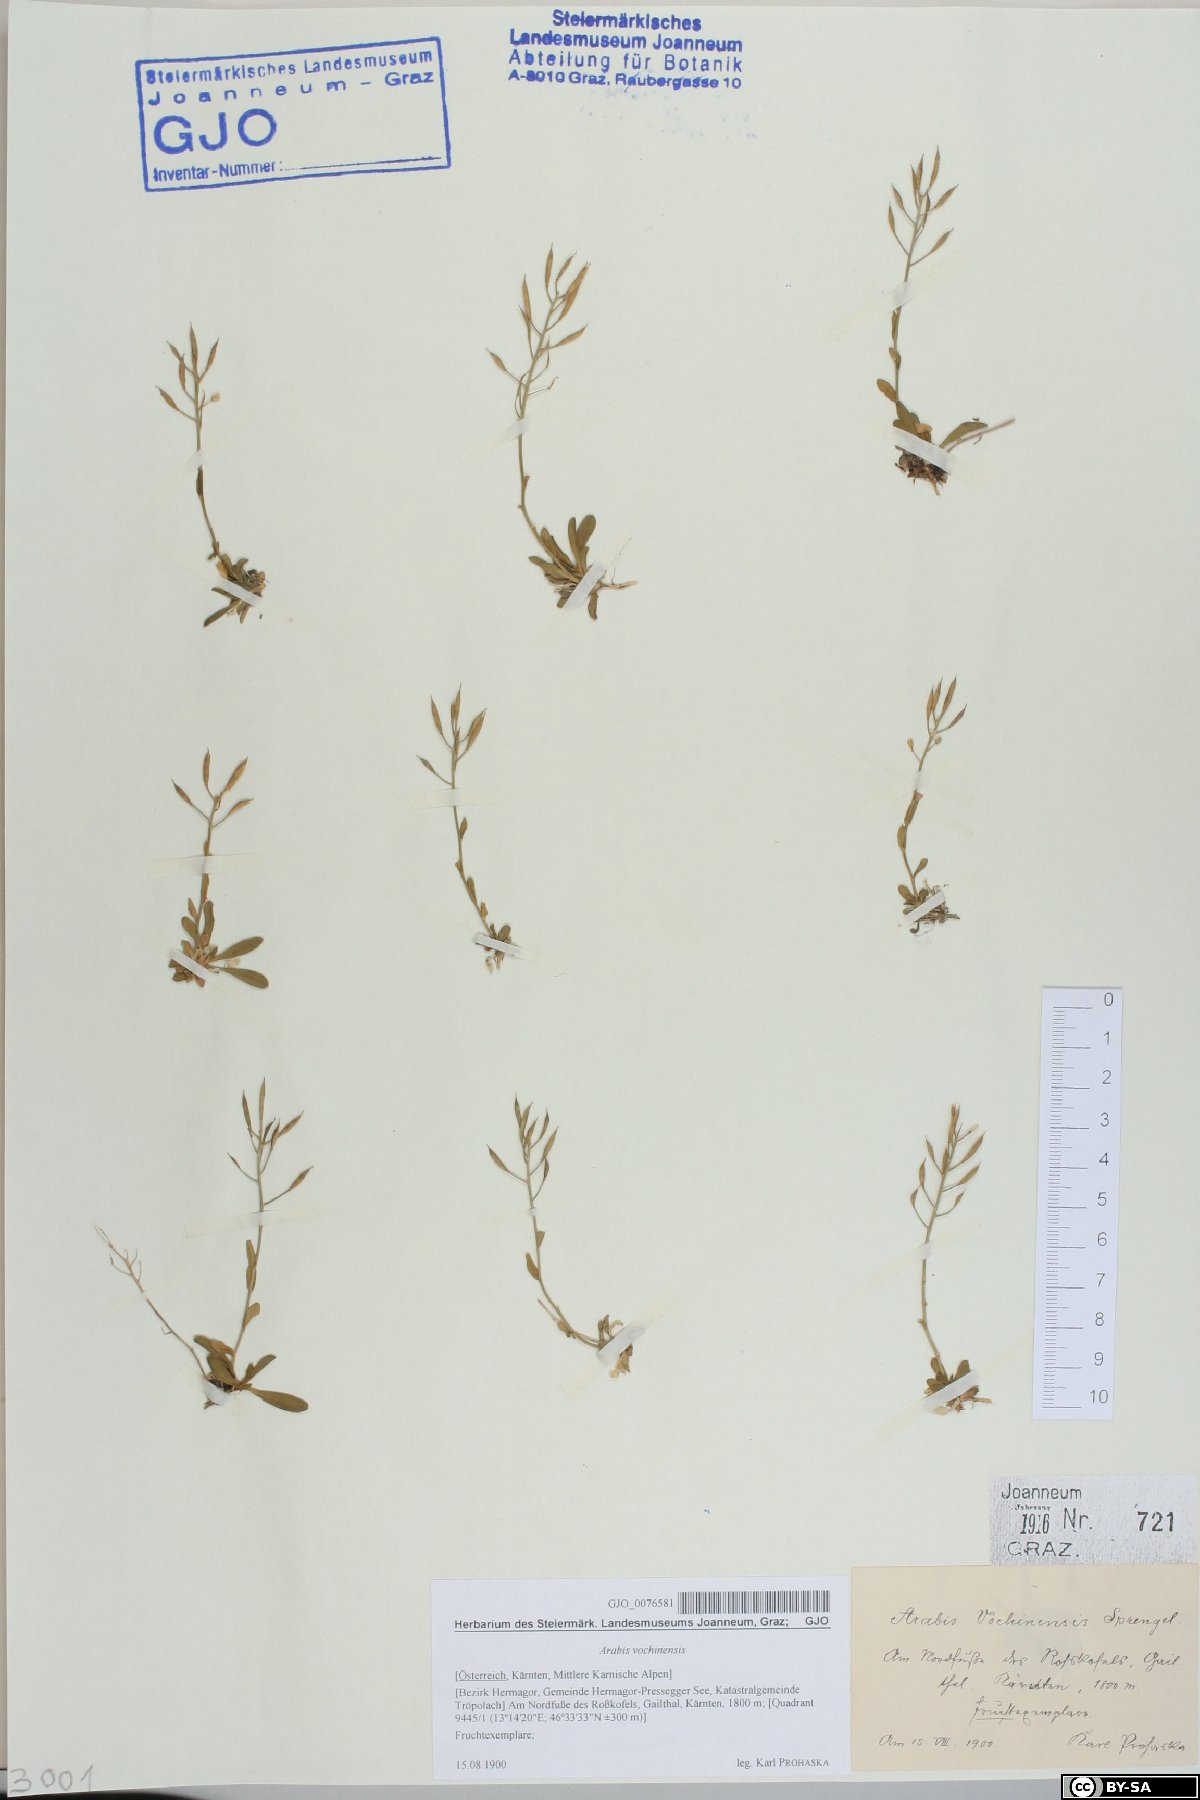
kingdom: Plantae
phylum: Tracheophyta
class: Magnoliopsida
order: Brassicales
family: Brassicaceae
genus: Arabis
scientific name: Arabis vochinensis
